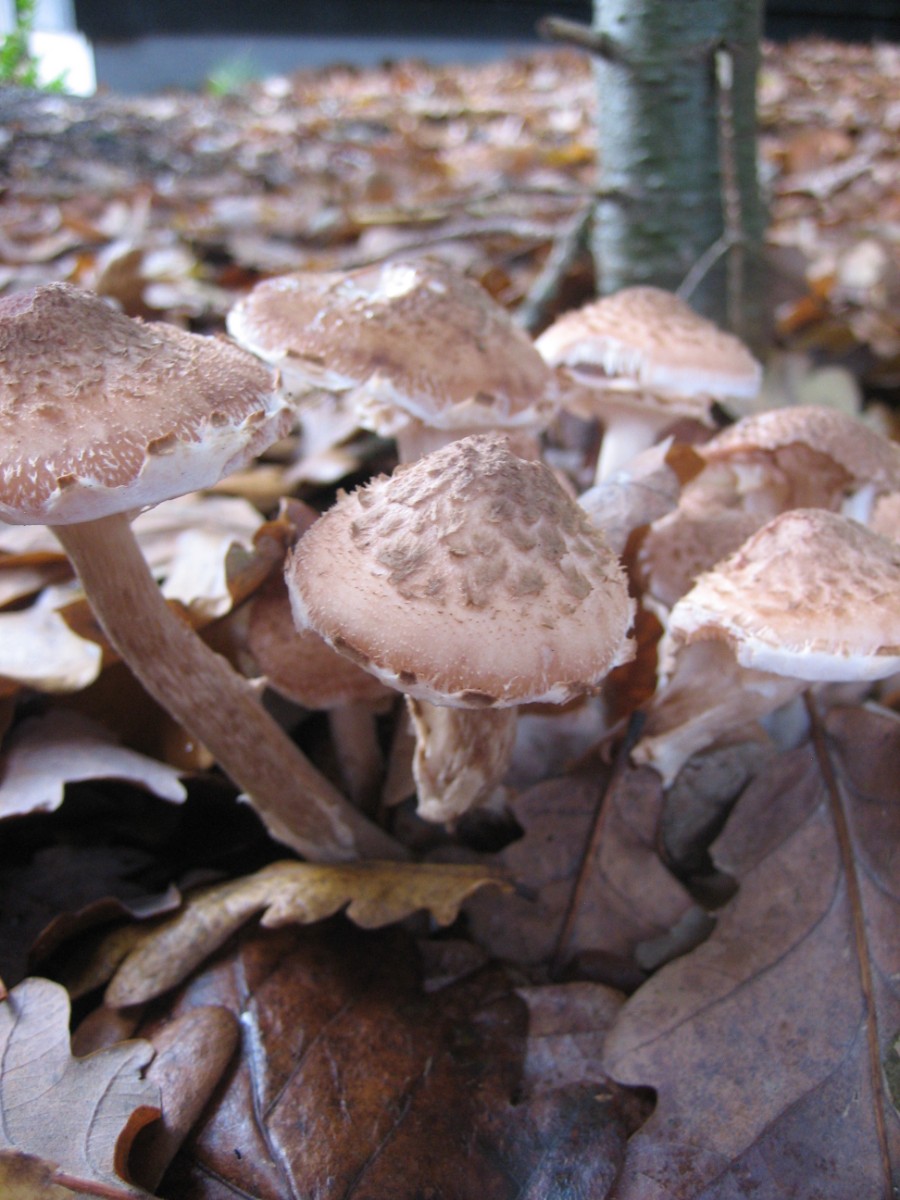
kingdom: Fungi
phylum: Basidiomycota
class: Agaricomycetes
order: Agaricales
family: Physalacriaceae
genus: Armillaria
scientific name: Armillaria
